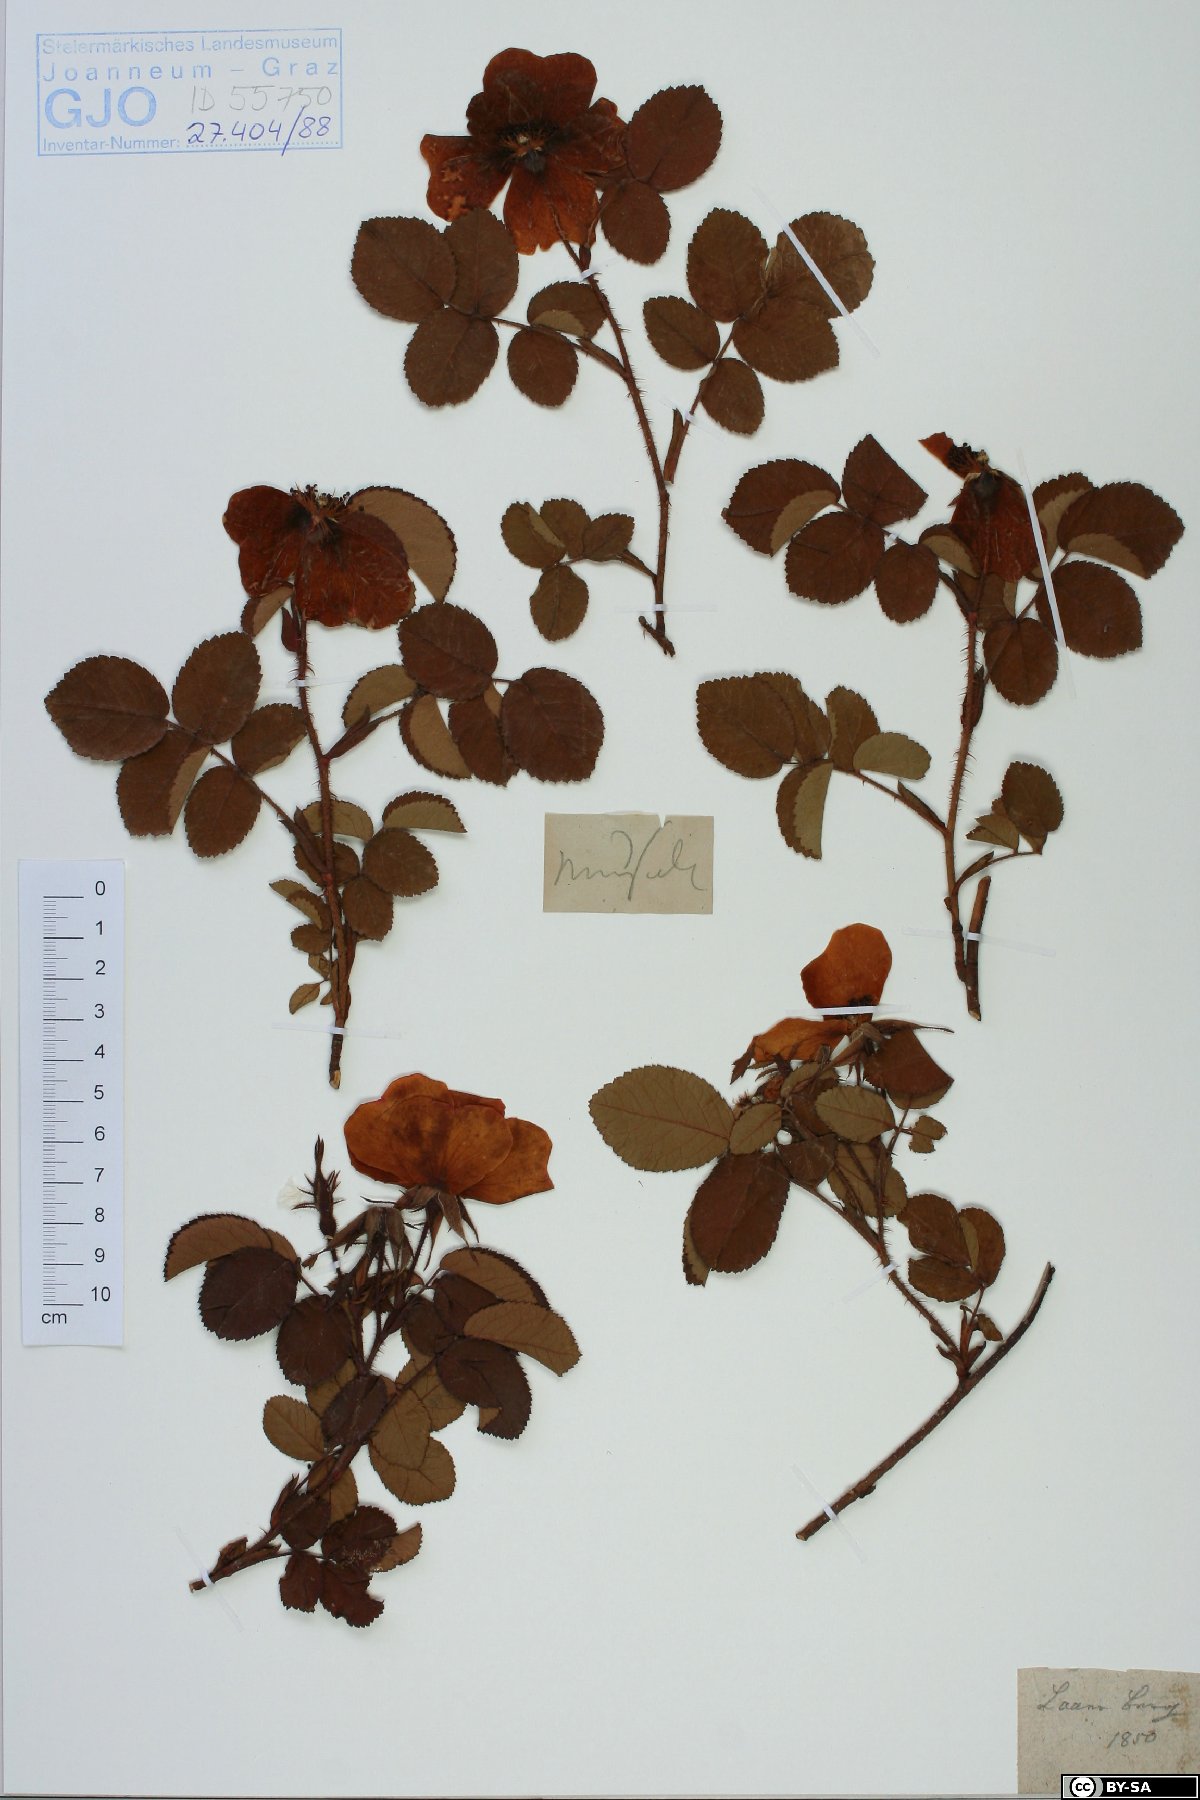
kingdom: Plantae
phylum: Tracheophyta
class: Magnoliopsida
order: Rosales
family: Rosaceae
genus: Rosa
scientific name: Rosa
